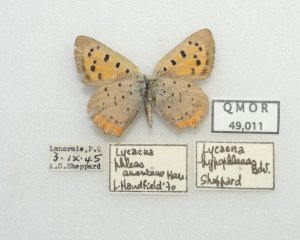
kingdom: Animalia
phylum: Arthropoda
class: Insecta
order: Lepidoptera
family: Lycaenidae
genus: Lycaena
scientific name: Lycaena phlaeas
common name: American Copper
